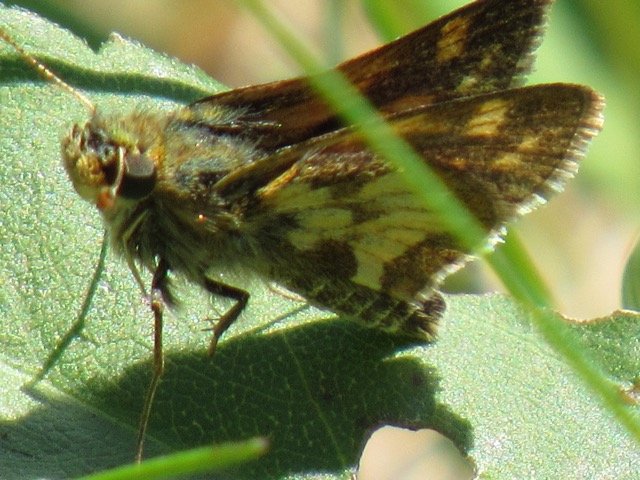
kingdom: Animalia
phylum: Arthropoda
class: Insecta
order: Lepidoptera
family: Hesperiidae
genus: Polites
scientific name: Polites coras
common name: Peck's Skipper
